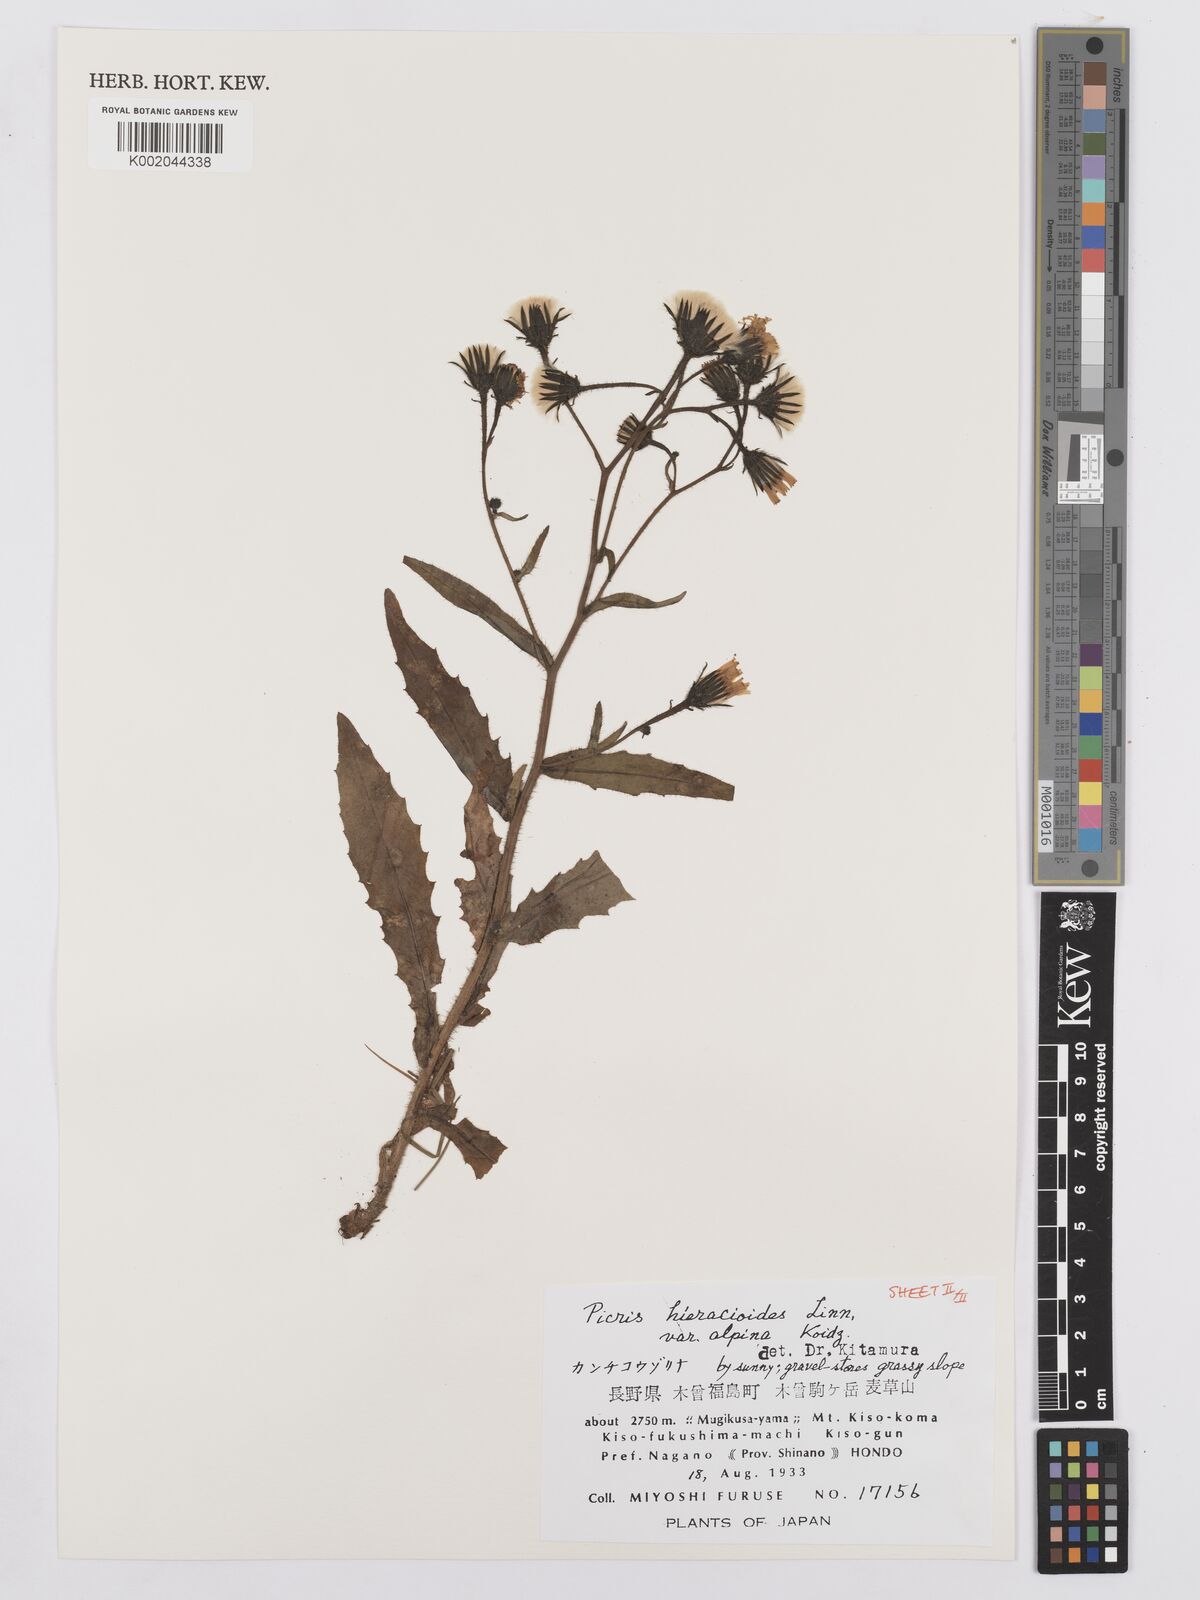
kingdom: Plantae
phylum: Tracheophyta
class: Magnoliopsida
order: Asterales
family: Asteraceae
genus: Picris
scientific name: Picris hieracioides
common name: Hawkweed oxtongue
